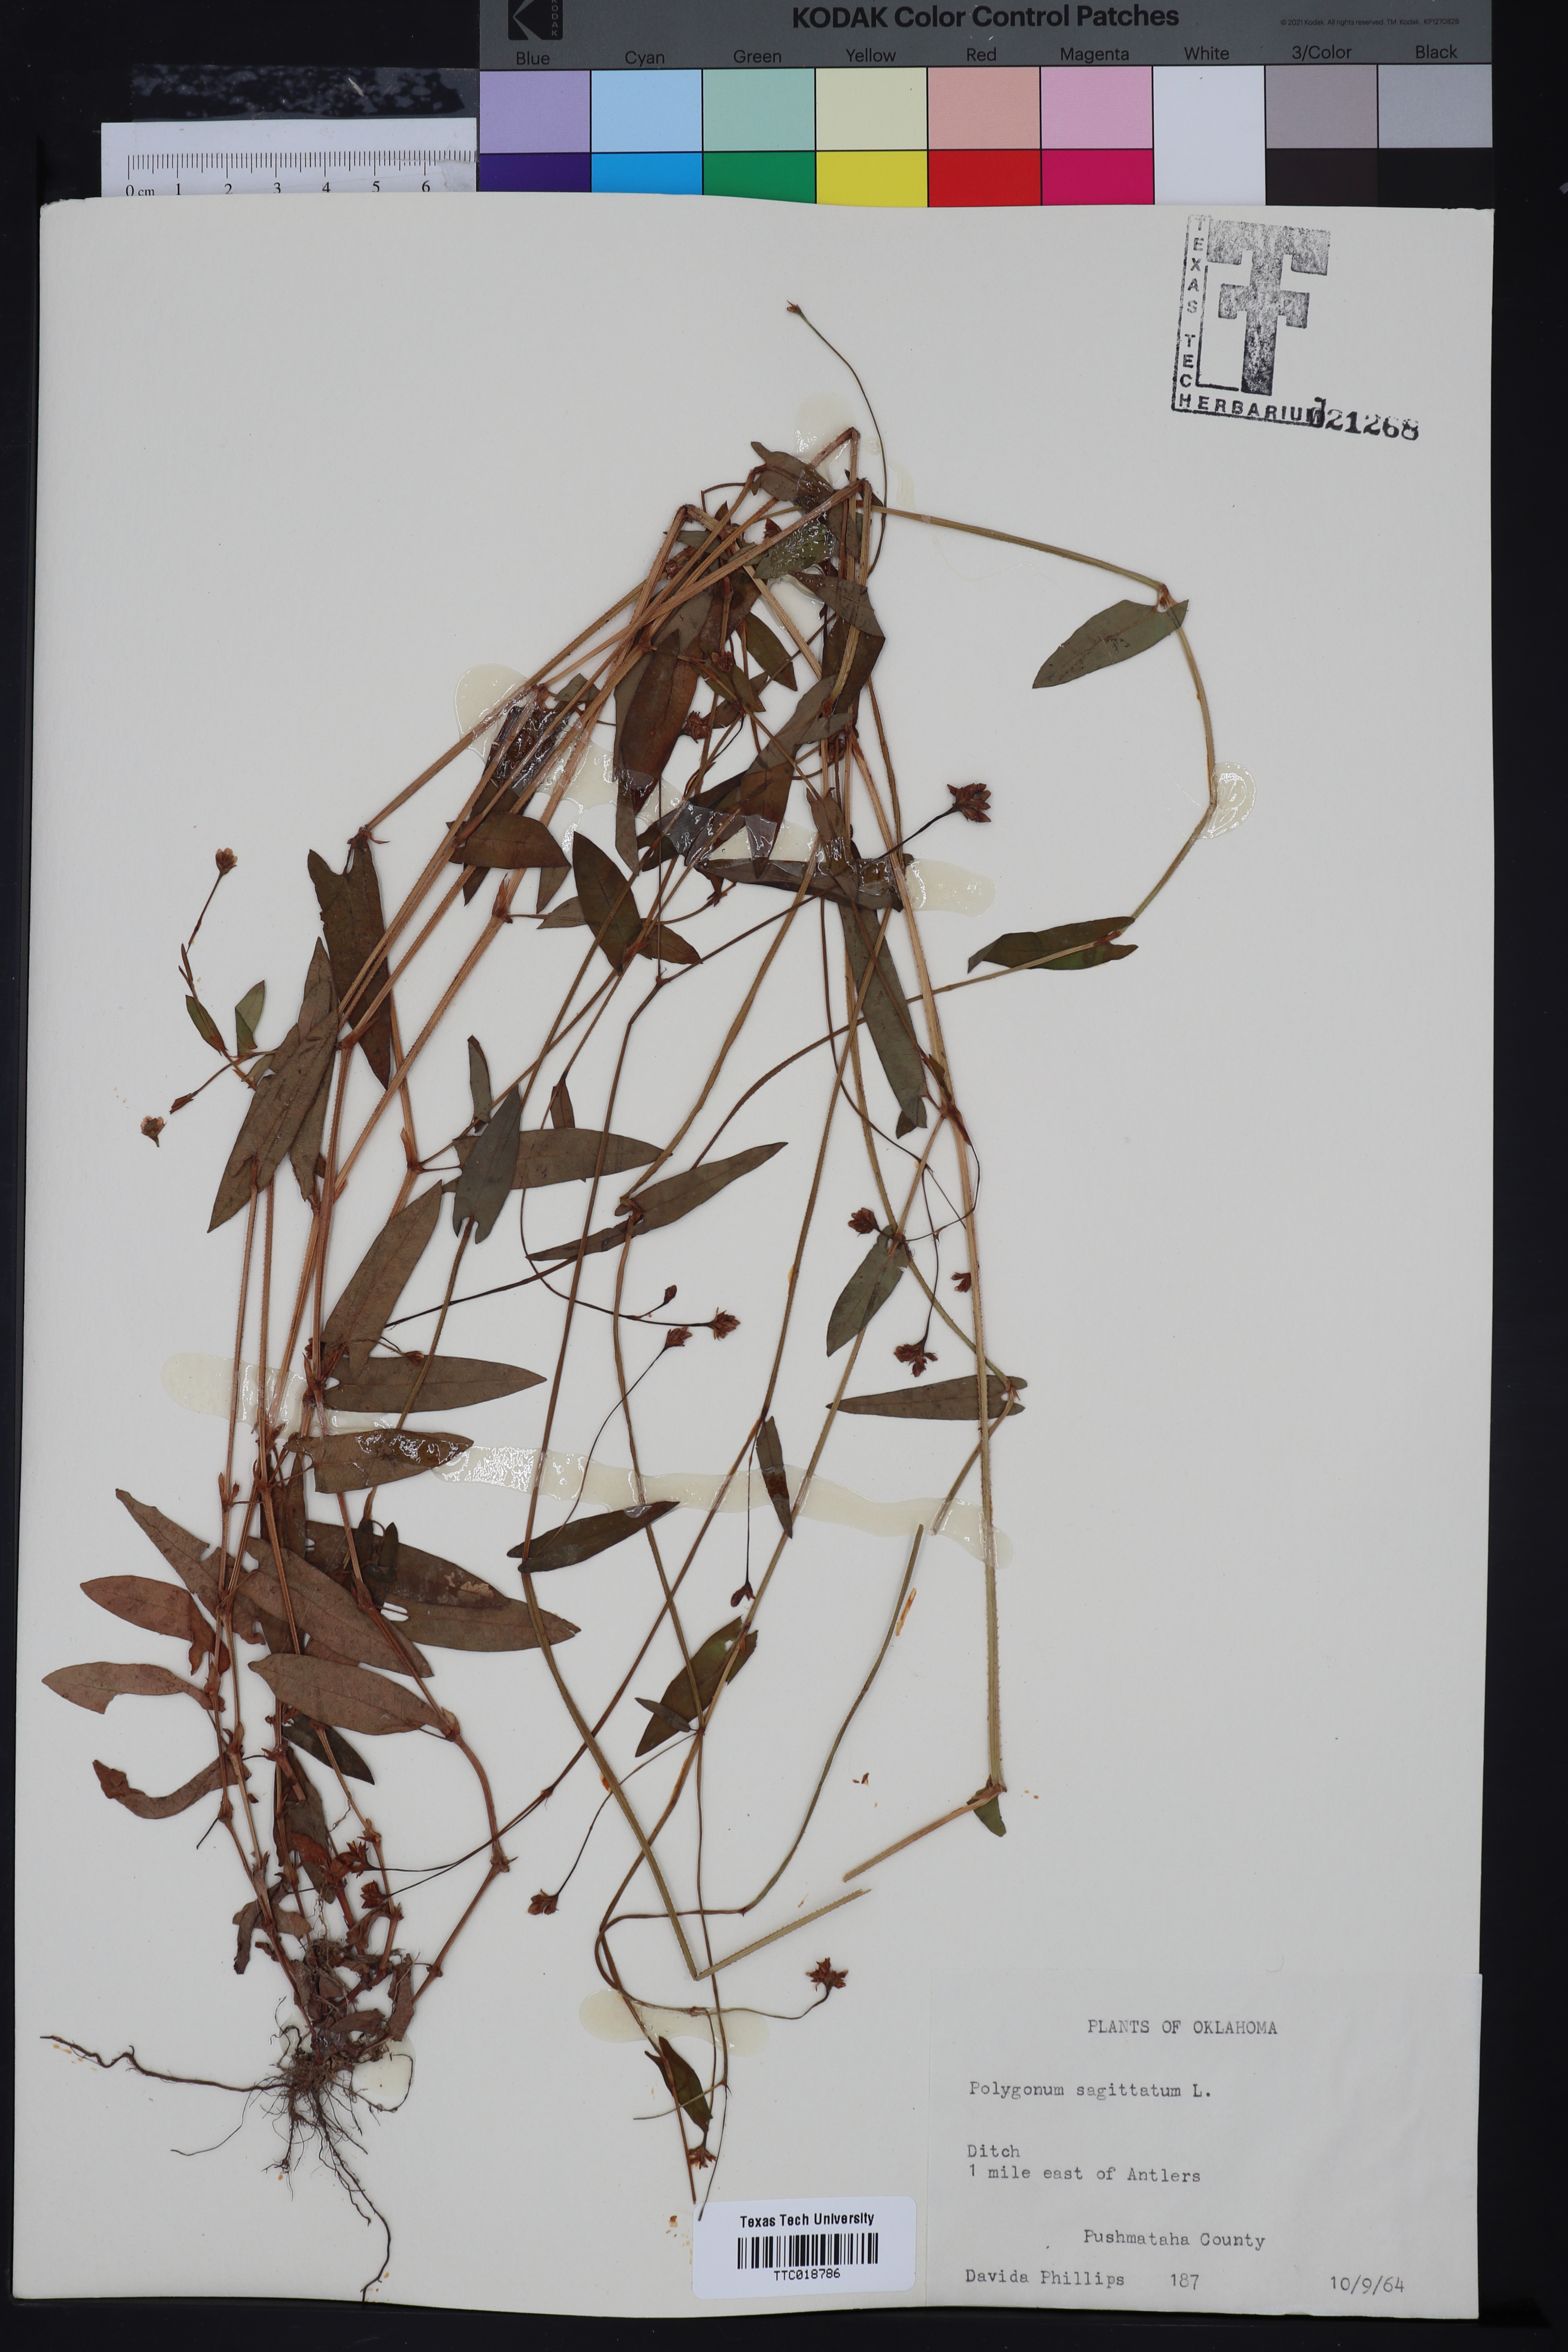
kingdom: Plantae
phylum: Tracheophyta
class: Magnoliopsida
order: Caryophyllales
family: Polygonaceae
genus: Persicaria
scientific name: Persicaria sagittata
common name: American tearthumb
